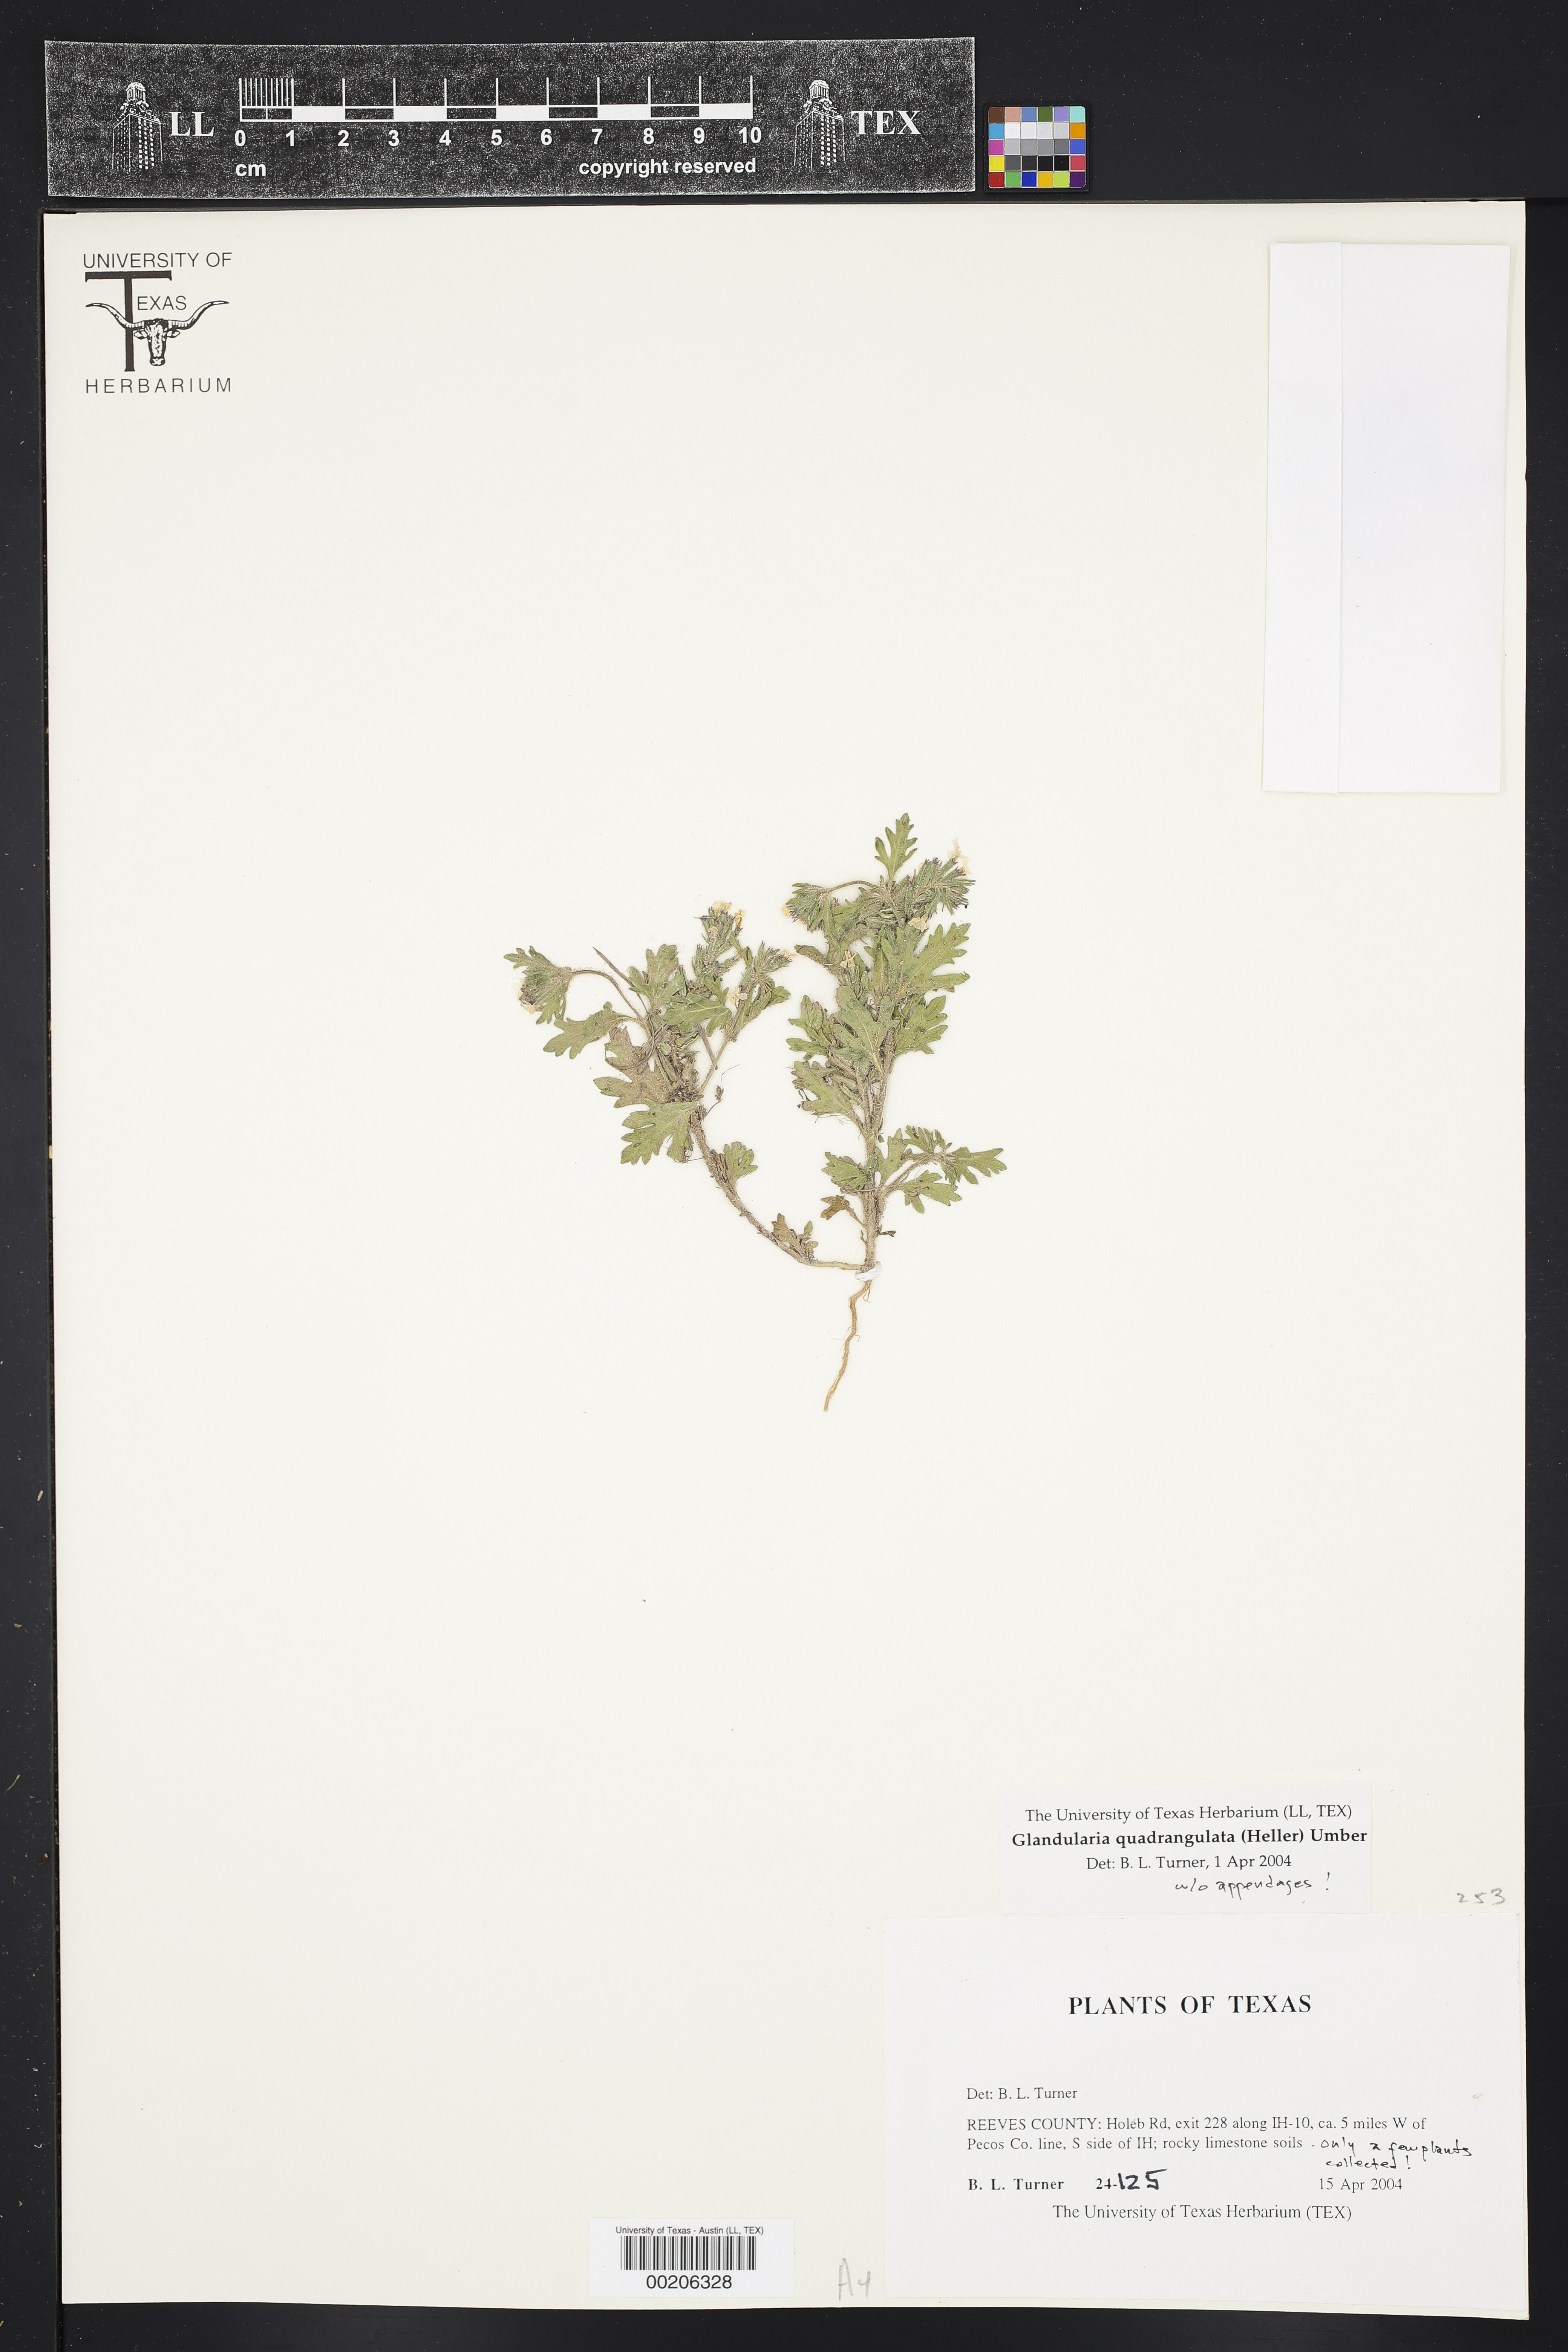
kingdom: Plantae
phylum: Tracheophyta
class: Magnoliopsida
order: Lamiales
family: Verbenaceae
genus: Verbena
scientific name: Verbena quadrangulata
